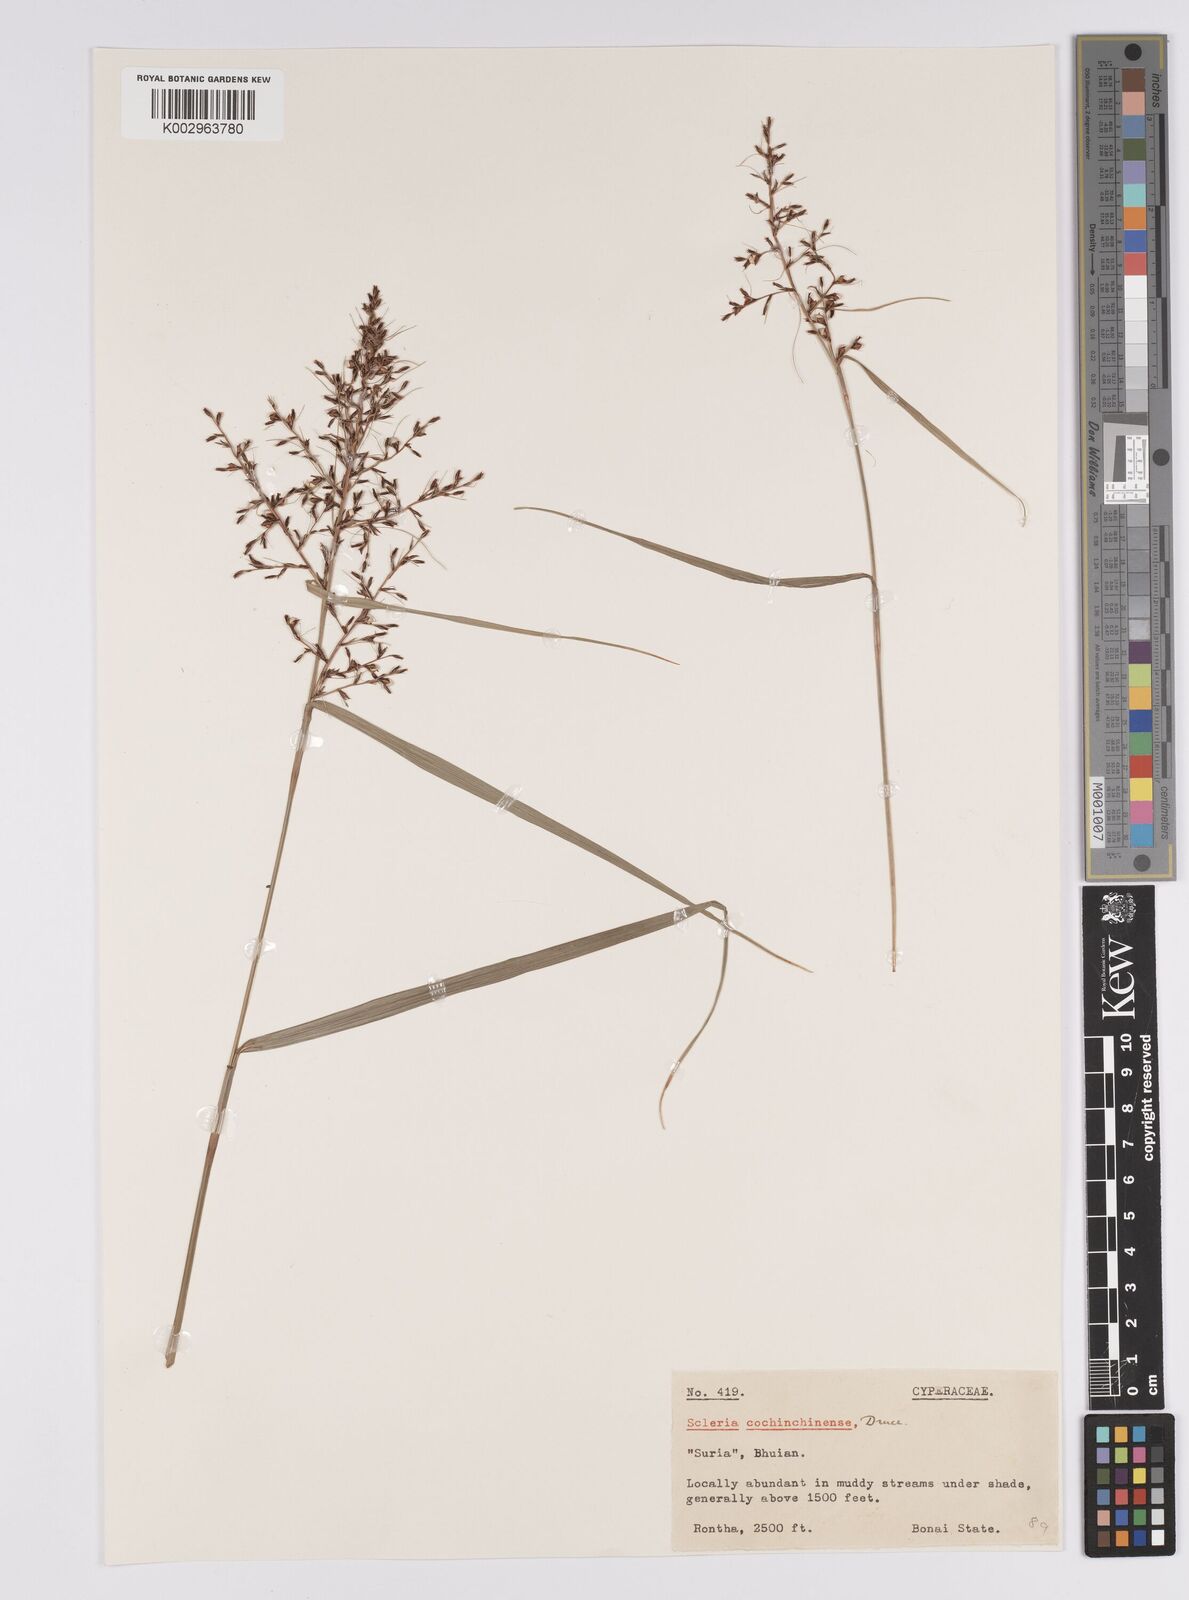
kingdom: Plantae
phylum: Tracheophyta
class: Liliopsida
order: Poales
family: Cyperaceae
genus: Scleria
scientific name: Scleria terrestris
